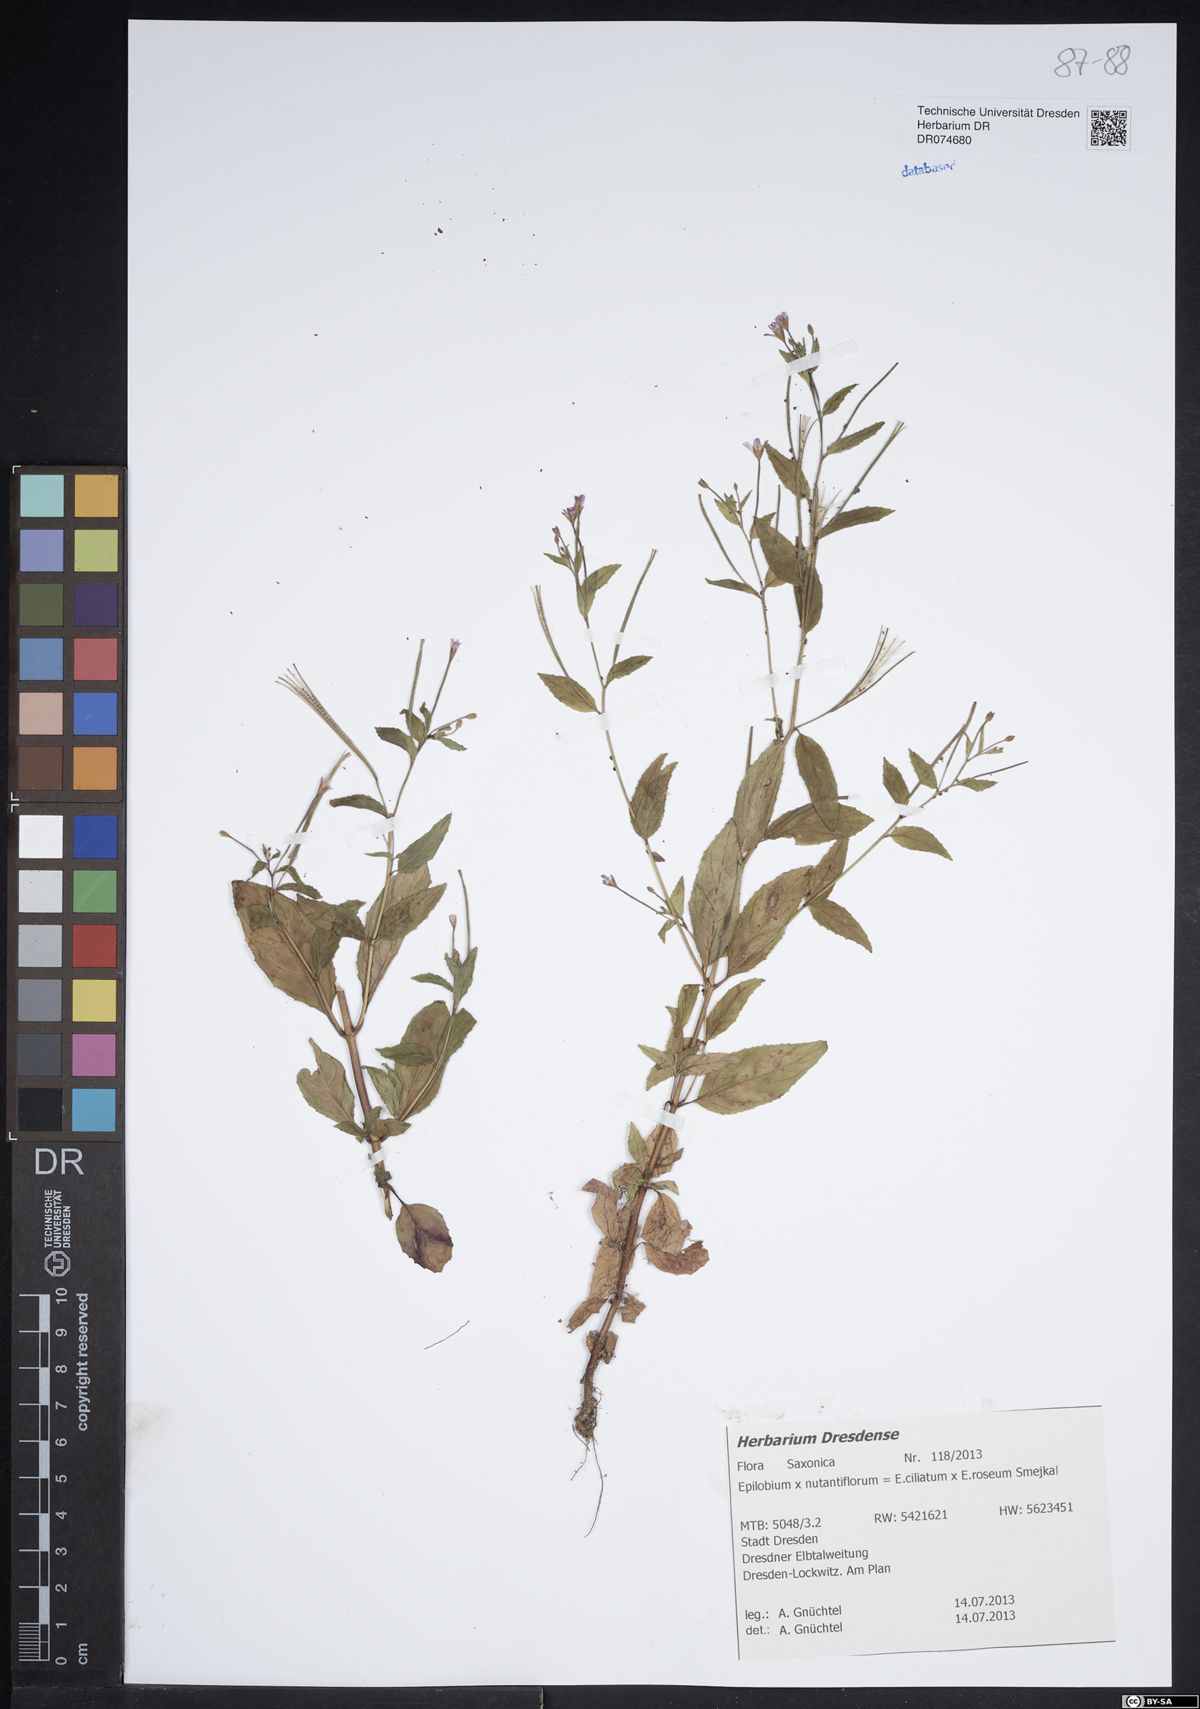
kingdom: Plantae
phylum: Tracheophyta
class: Magnoliopsida
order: Myrtales
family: Onagraceae
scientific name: Onagraceae
